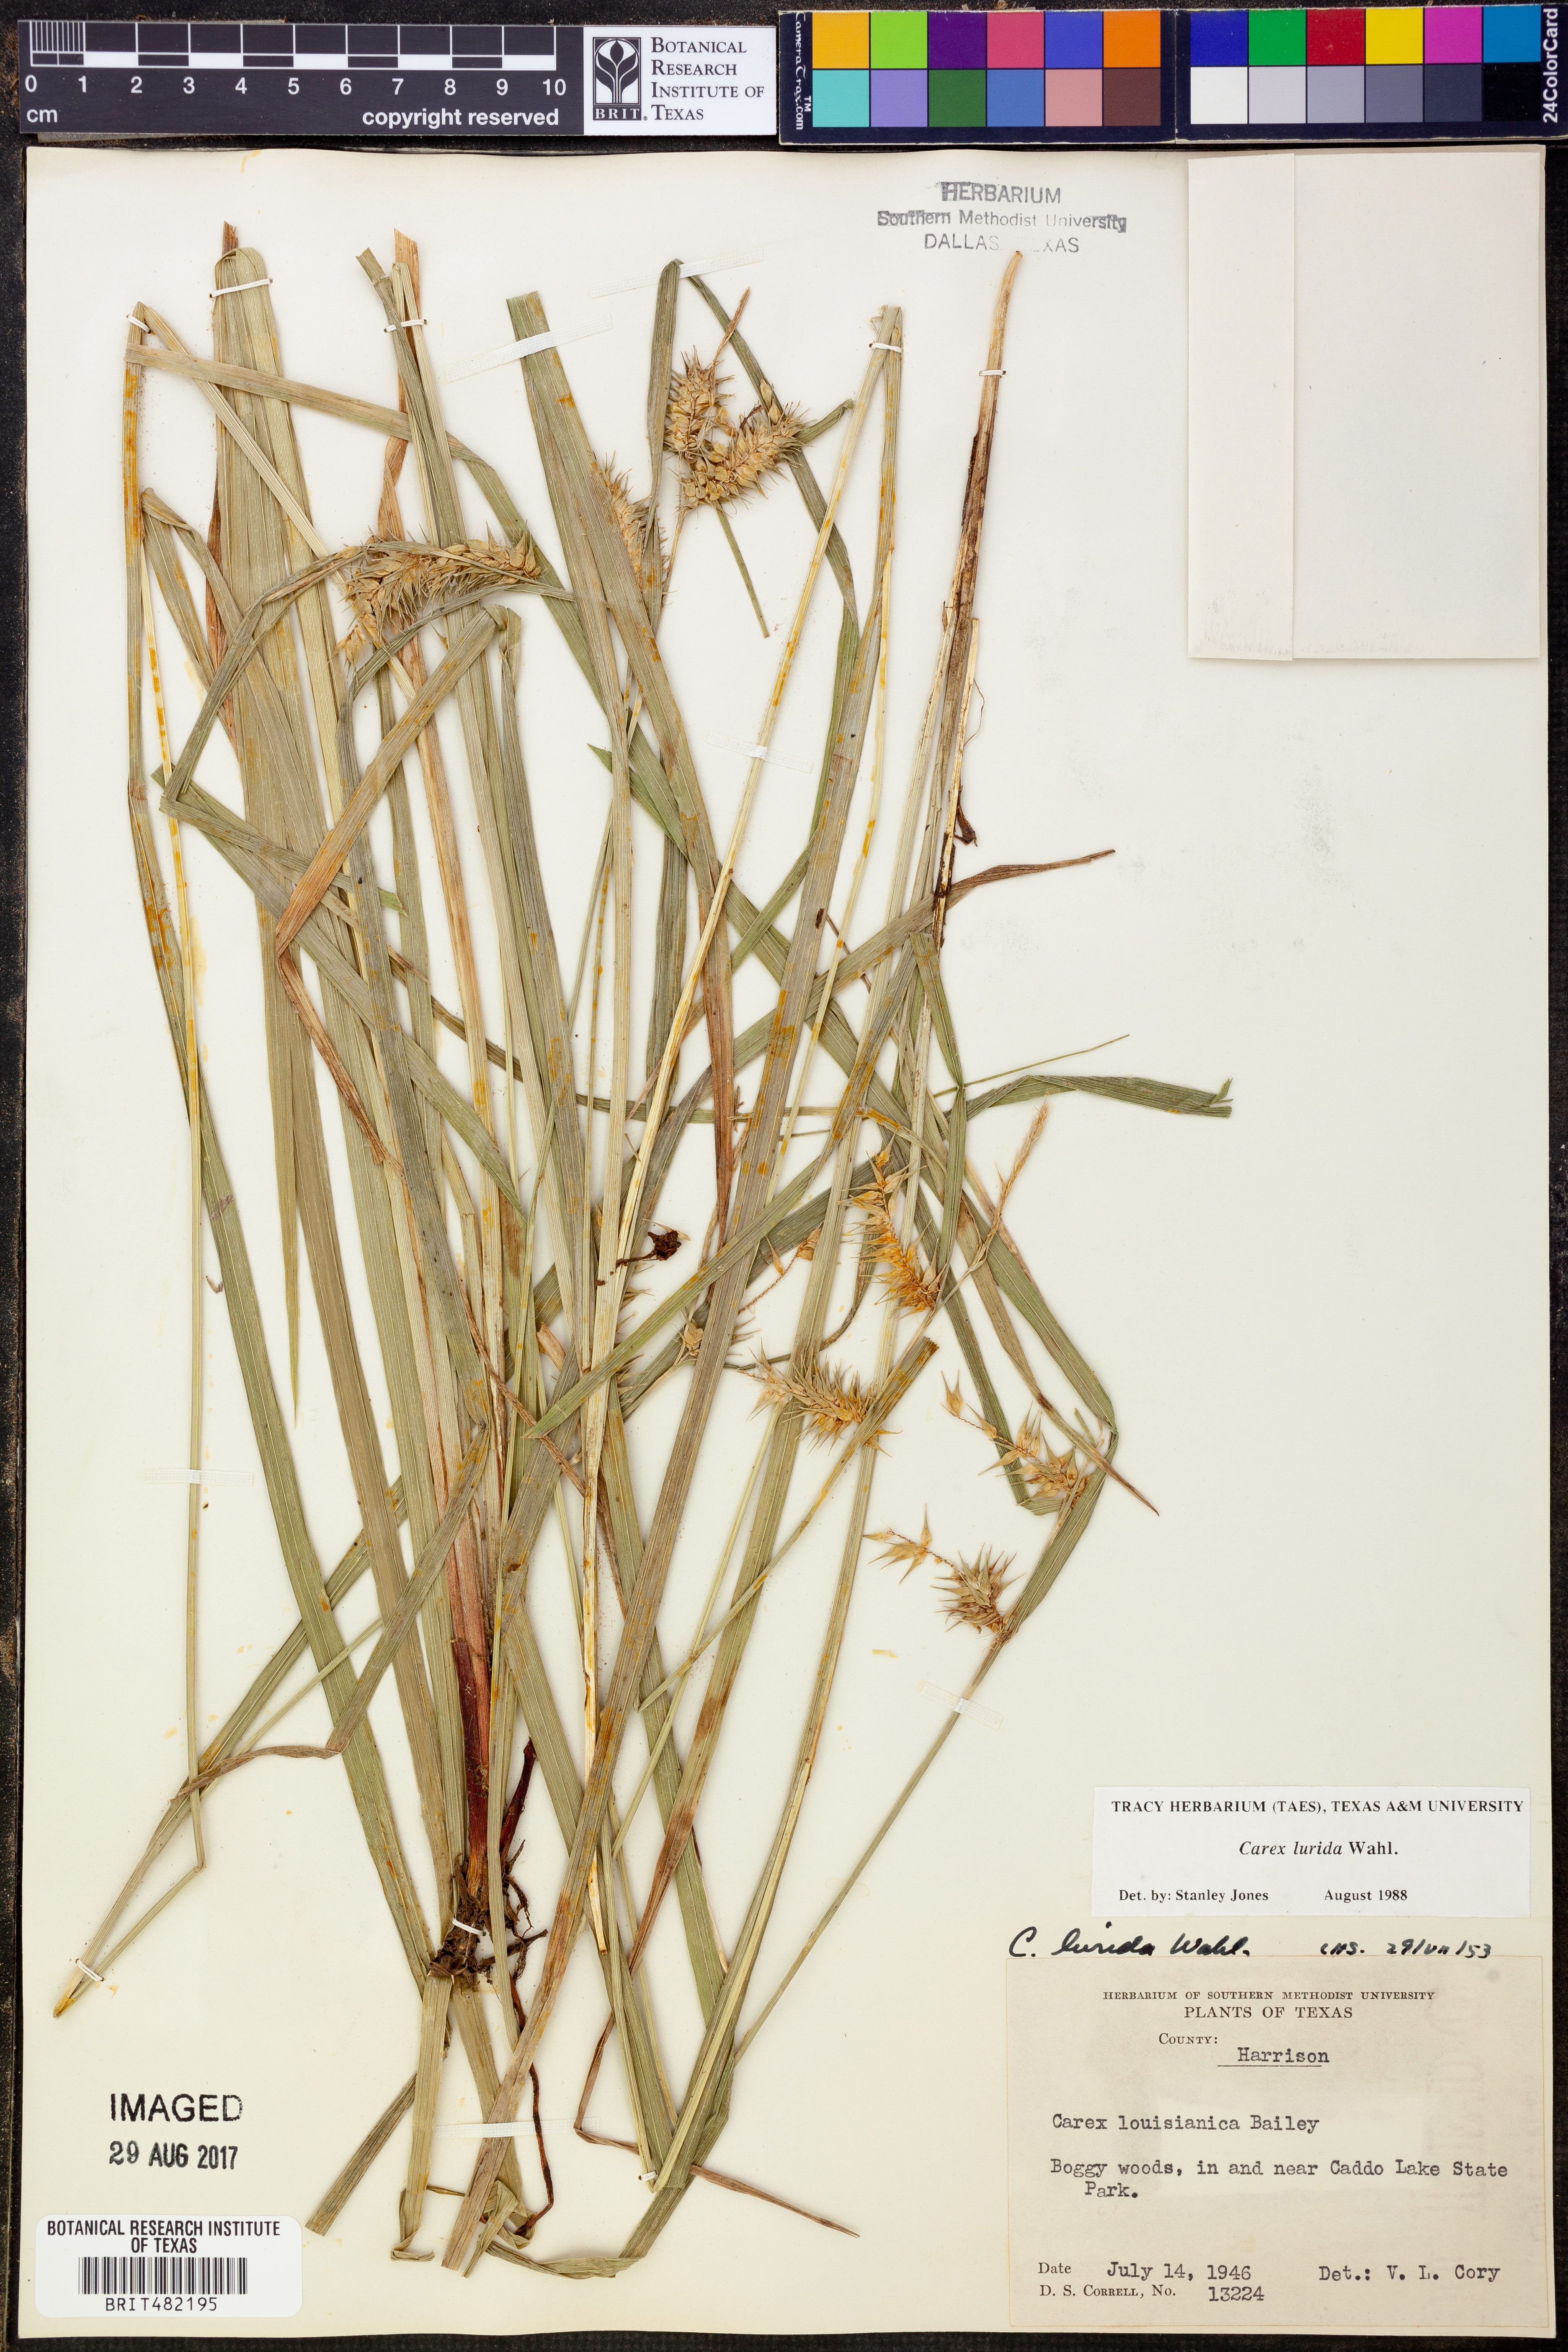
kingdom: Plantae
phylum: Tracheophyta
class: Liliopsida
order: Poales
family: Cyperaceae
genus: Carex
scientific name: Carex lurida
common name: Sallow sedge
